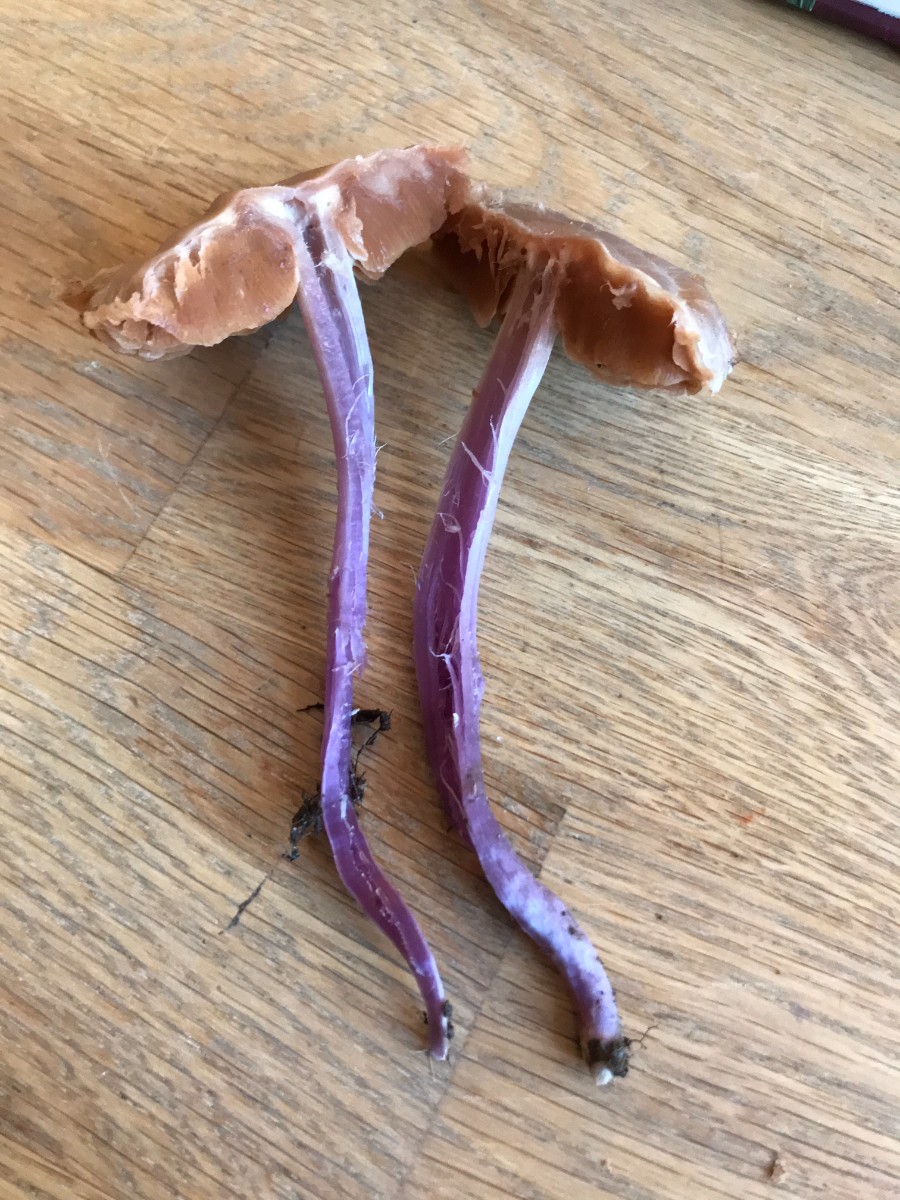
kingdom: Fungi
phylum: Basidiomycota
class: Agaricomycetes
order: Agaricales
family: Cortinariaceae
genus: Cortinarius
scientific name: Cortinarius cagei
